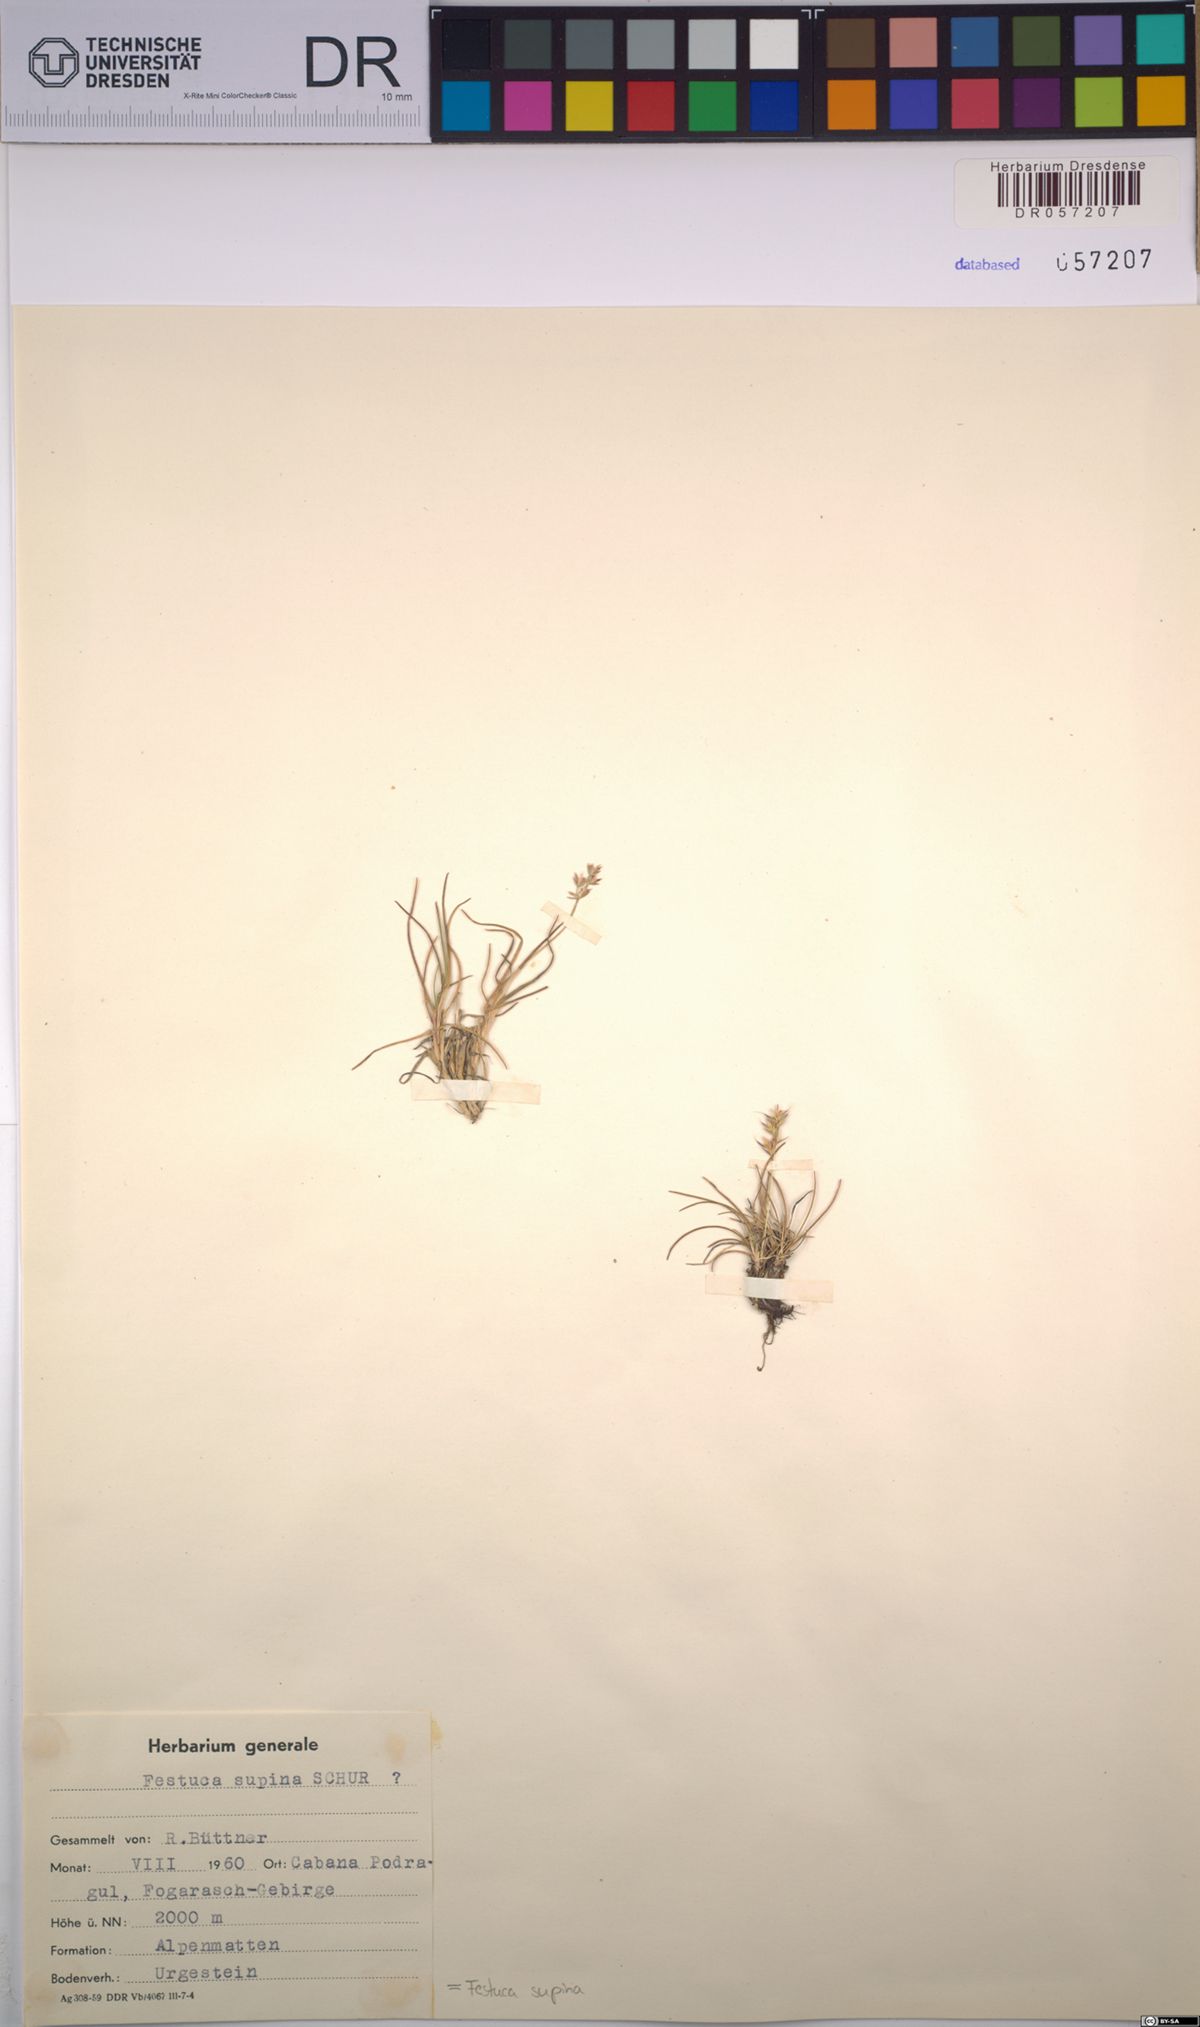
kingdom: Plantae
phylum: Tracheophyta
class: Liliopsida
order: Poales
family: Poaceae
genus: Festuca
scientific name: Festuca airoides
